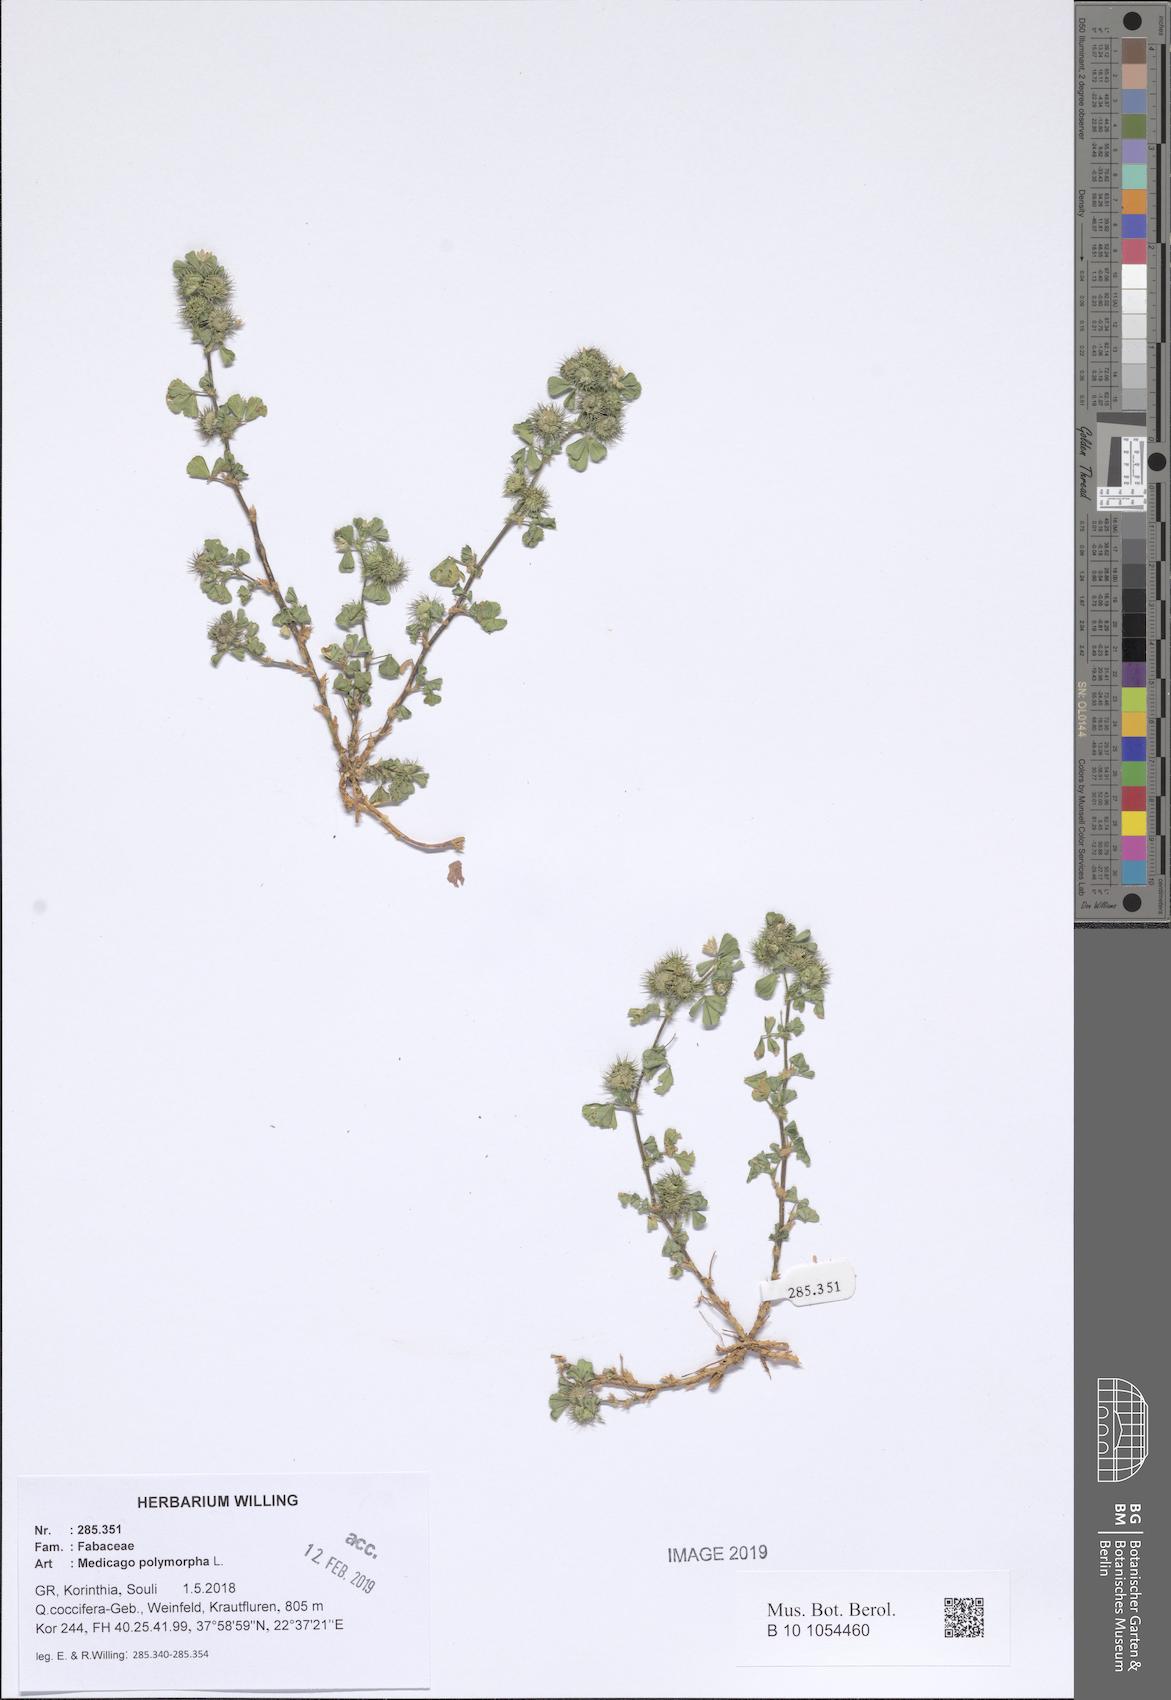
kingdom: Plantae
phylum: Tracheophyta
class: Magnoliopsida
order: Fabales
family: Fabaceae
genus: Medicago
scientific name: Medicago polymorpha
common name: Burclover
